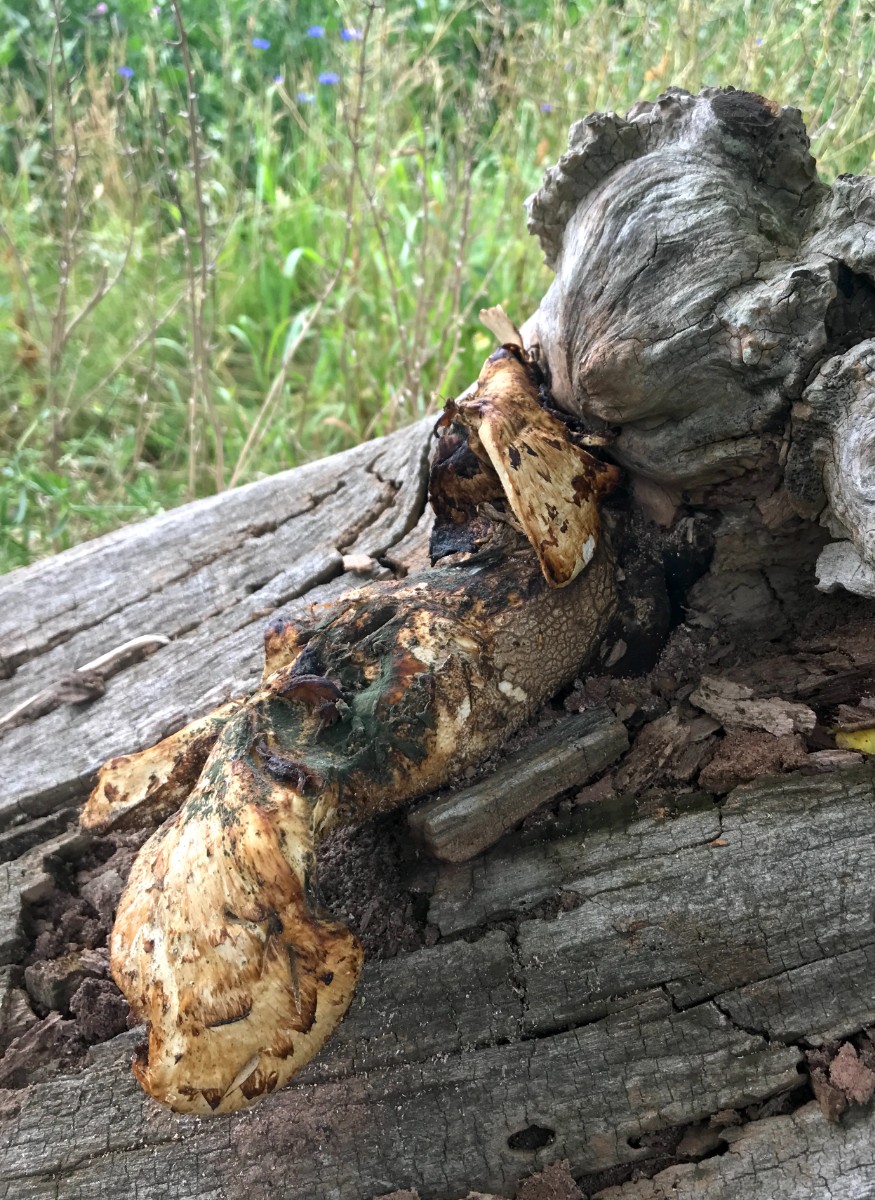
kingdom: Fungi
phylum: Basidiomycota
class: Agaricomycetes
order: Polyporales
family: Polyporaceae
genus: Cerioporus
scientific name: Cerioporus squamosus
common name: skællet stilkporesvamp
